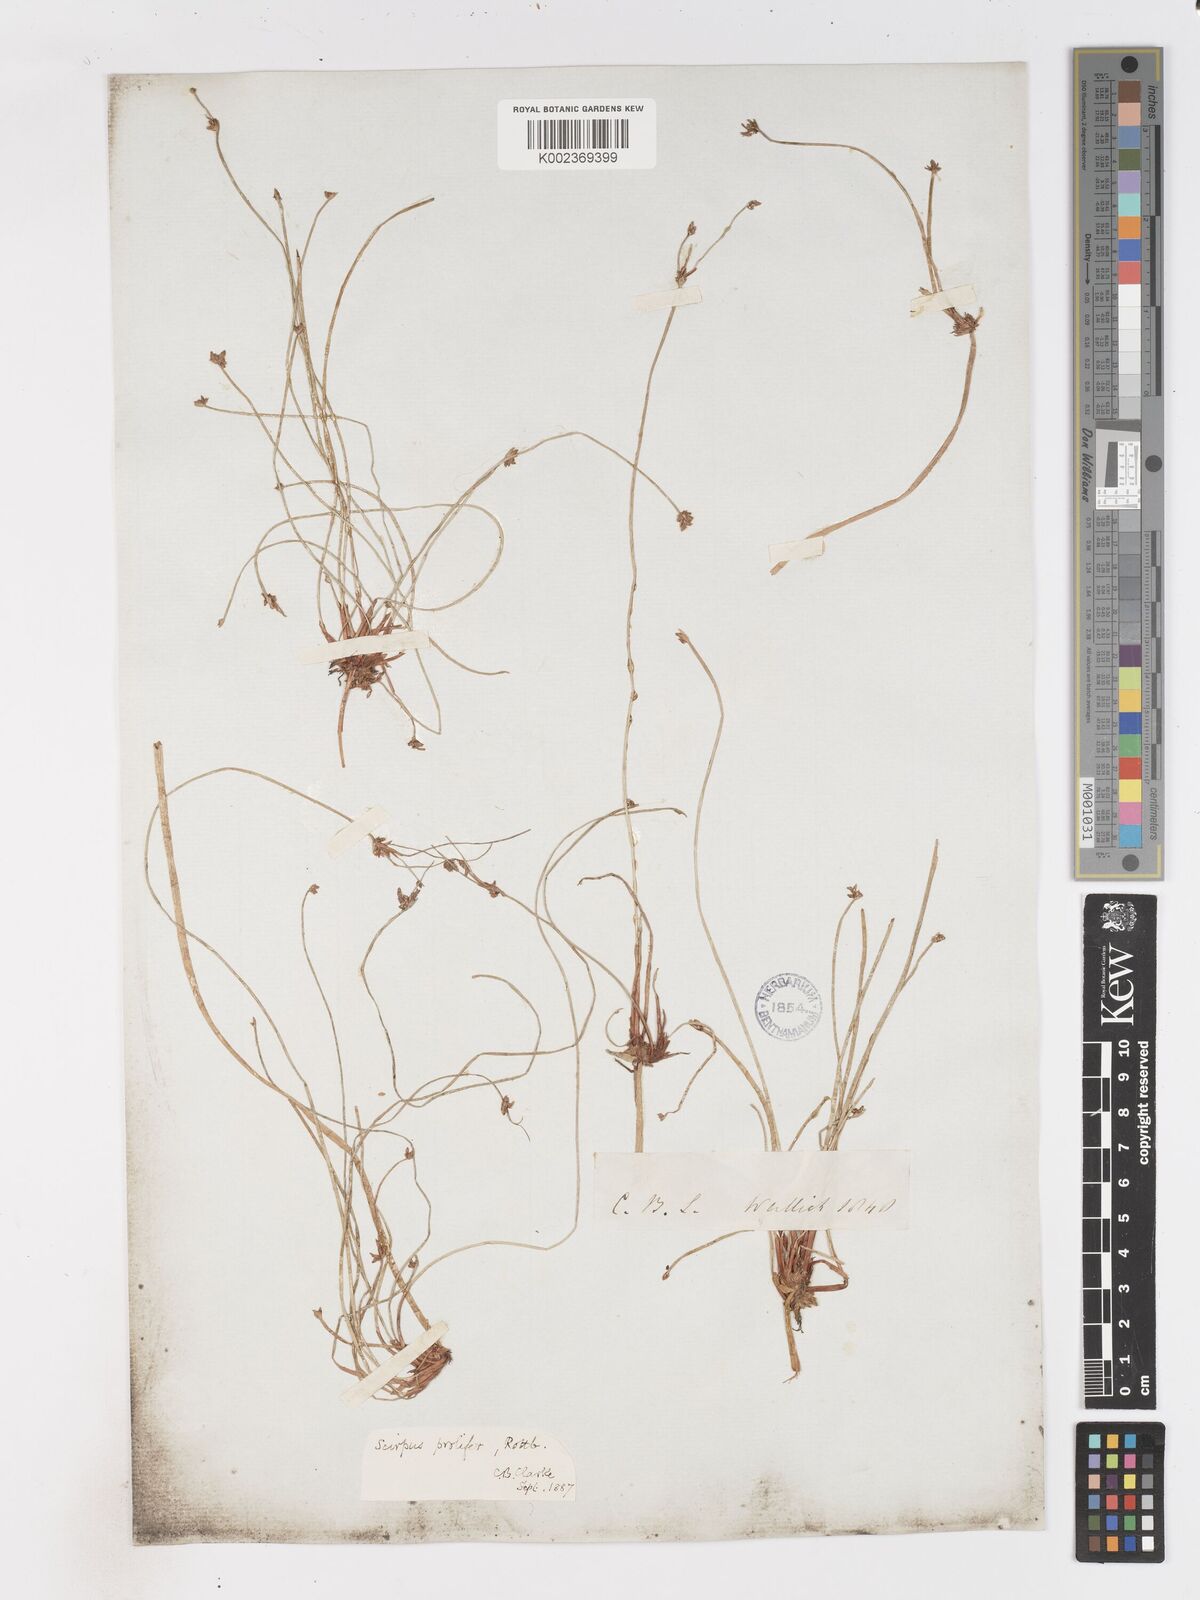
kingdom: Plantae
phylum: Tracheophyta
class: Liliopsida
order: Poales
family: Cyperaceae
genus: Isolepis
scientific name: Isolepis prolifera
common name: Proliferating bulrush
